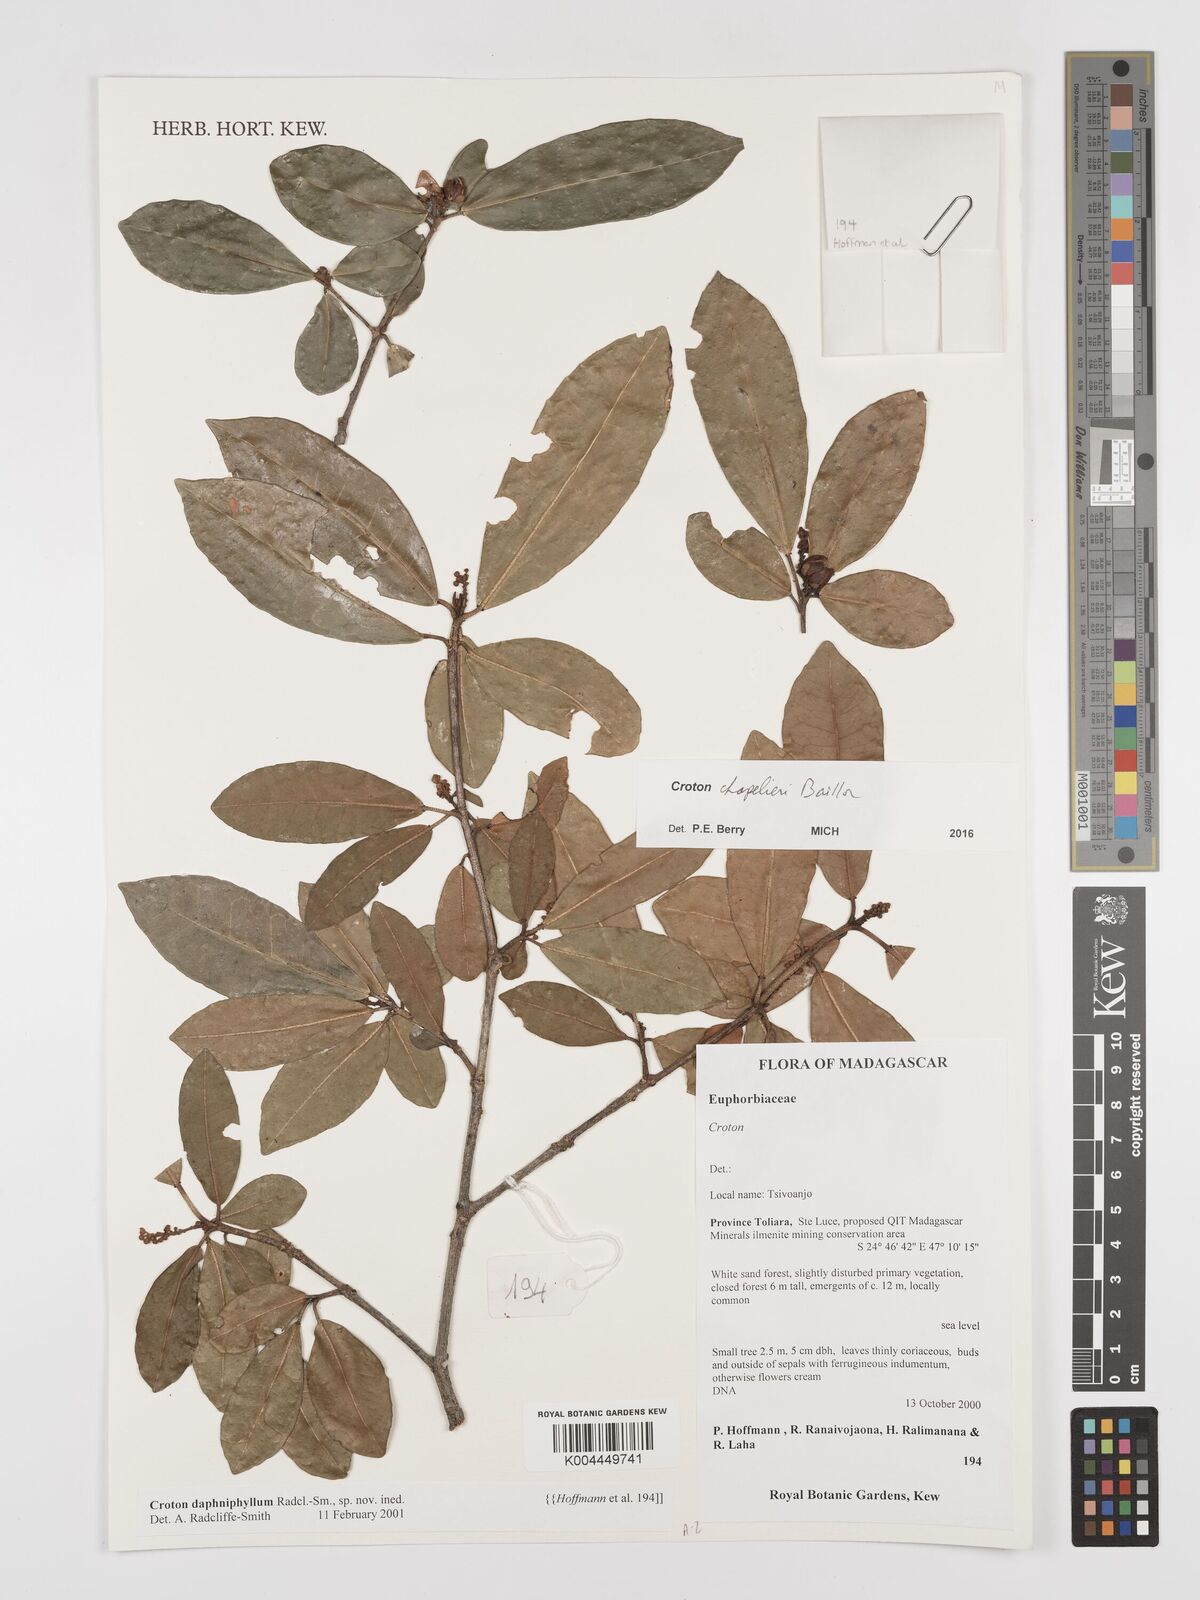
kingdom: Plantae
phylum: Tracheophyta
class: Magnoliopsida
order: Malpighiales
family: Euphorbiaceae
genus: Croton
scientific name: Croton chapelieri
